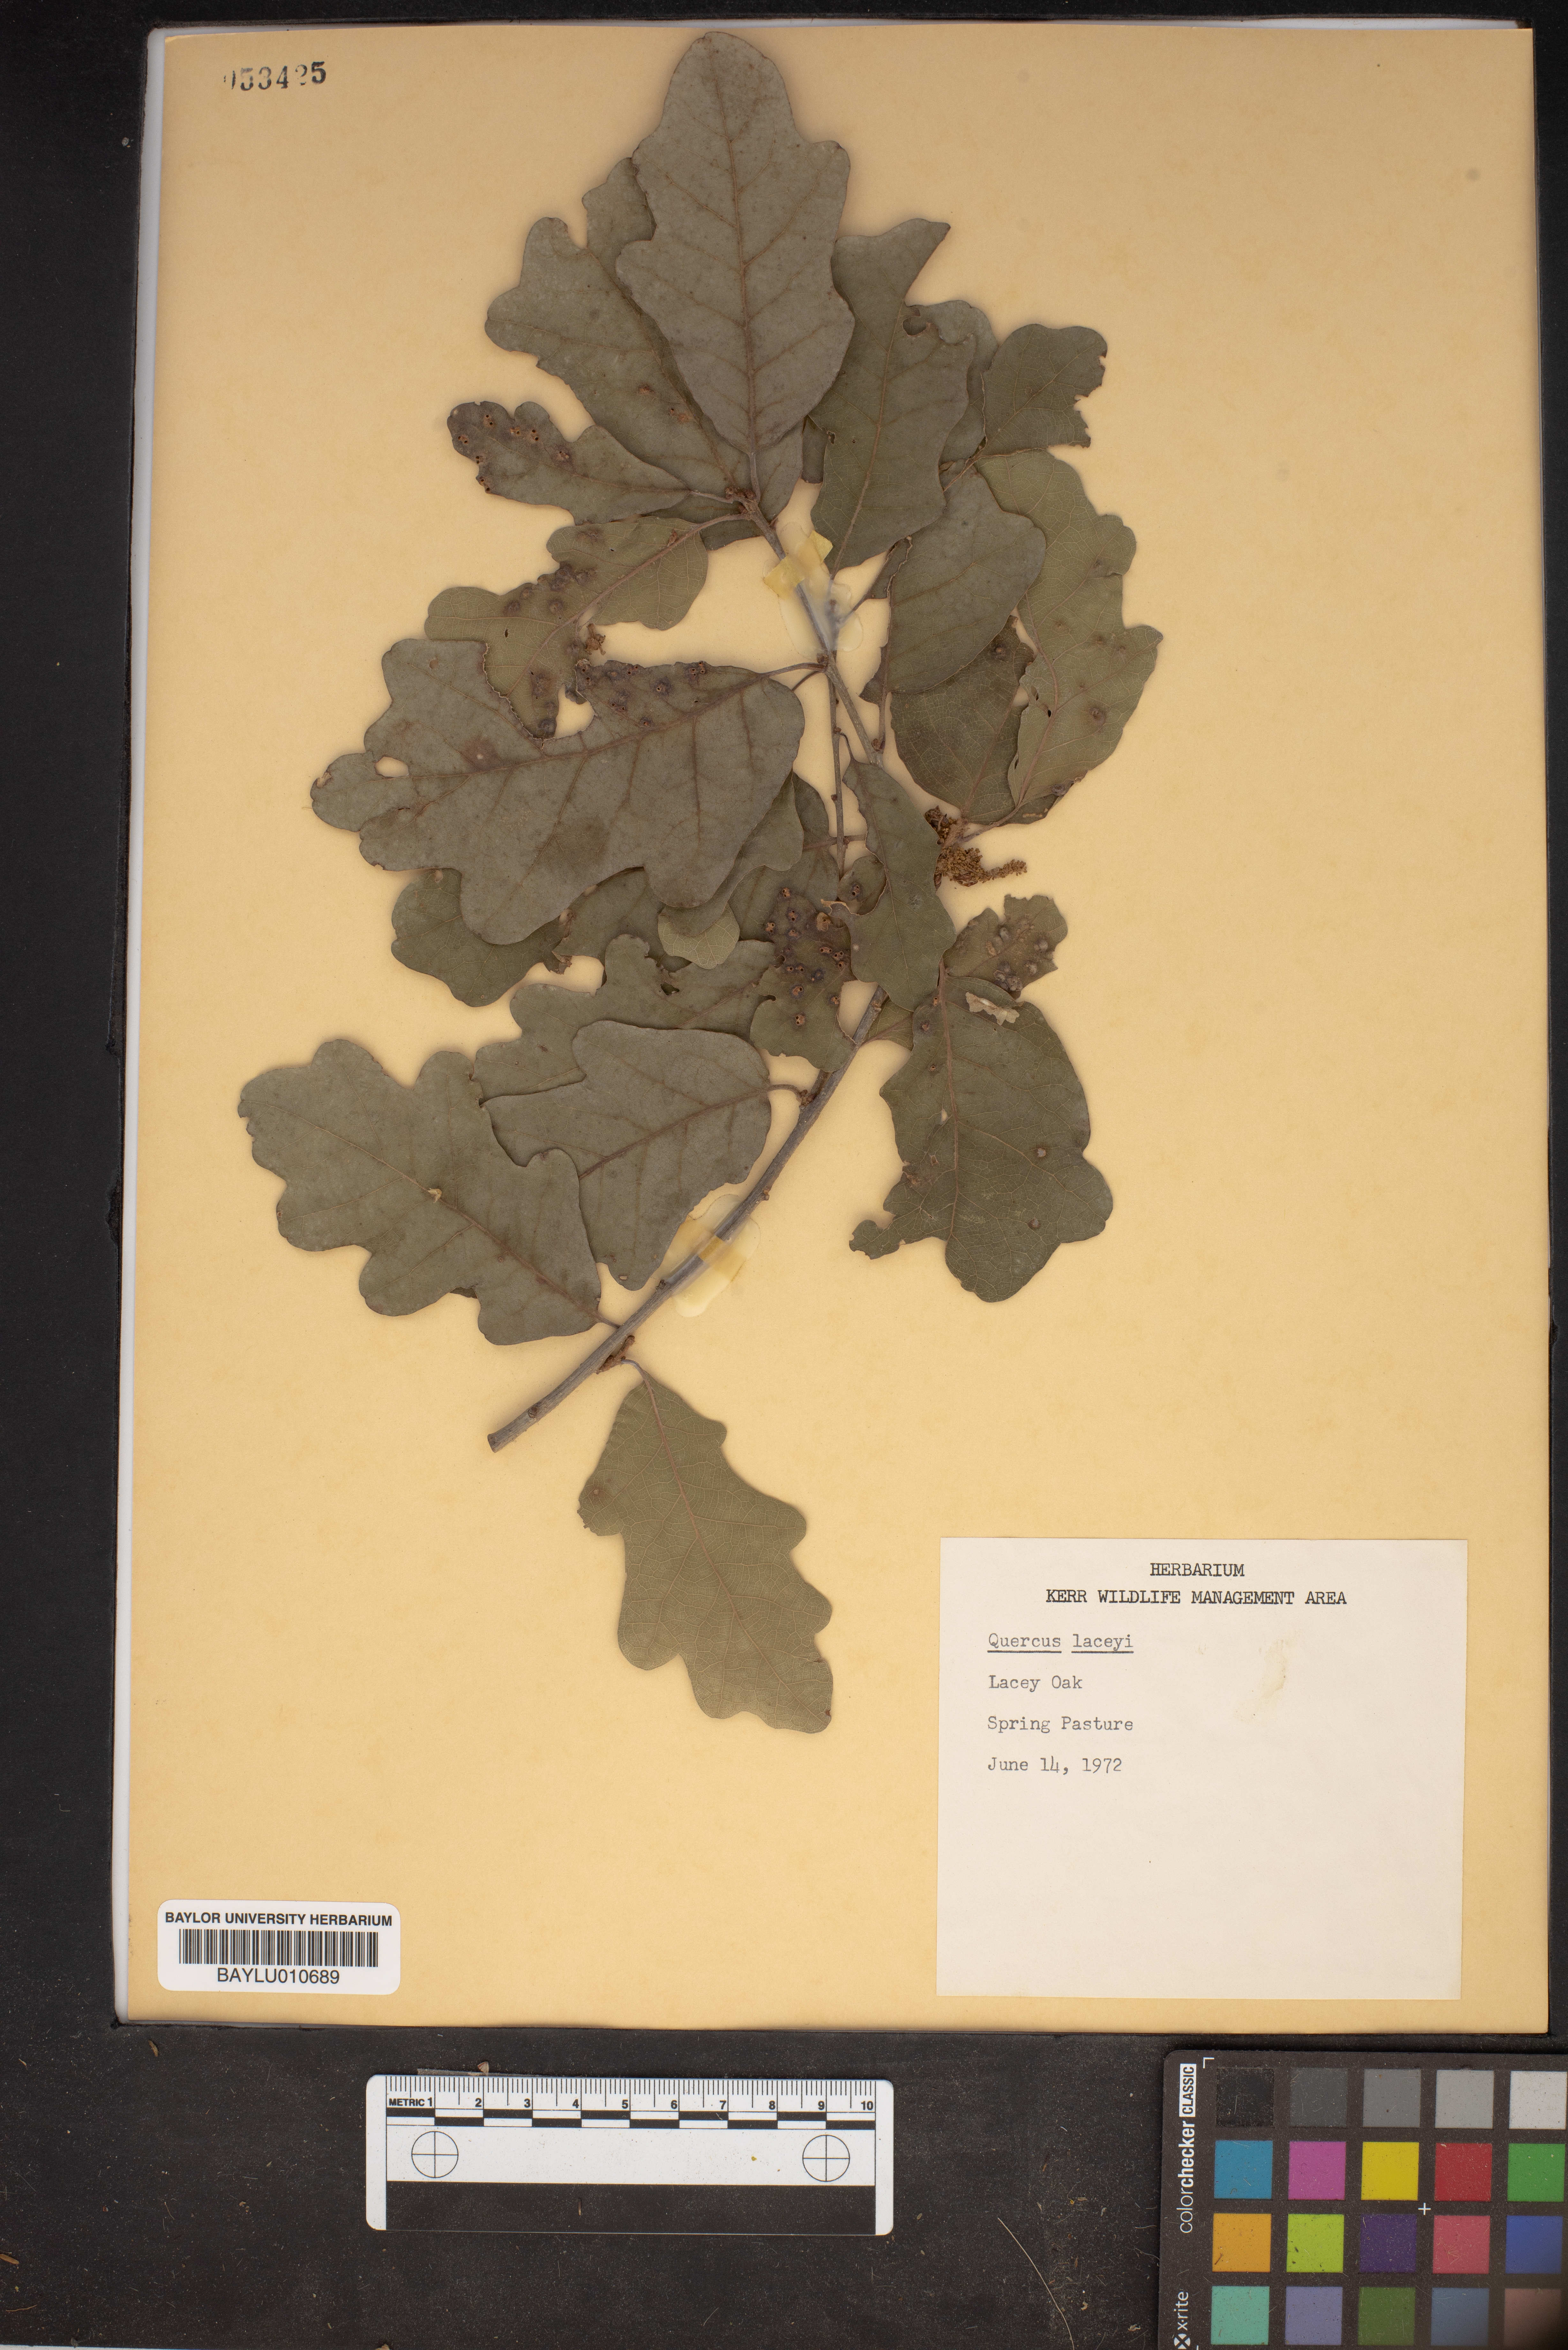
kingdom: Plantae
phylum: Tracheophyta
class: Magnoliopsida
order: Fagales
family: Fagaceae
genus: Quercus
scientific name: Quercus laceyi
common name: Lacey oak
